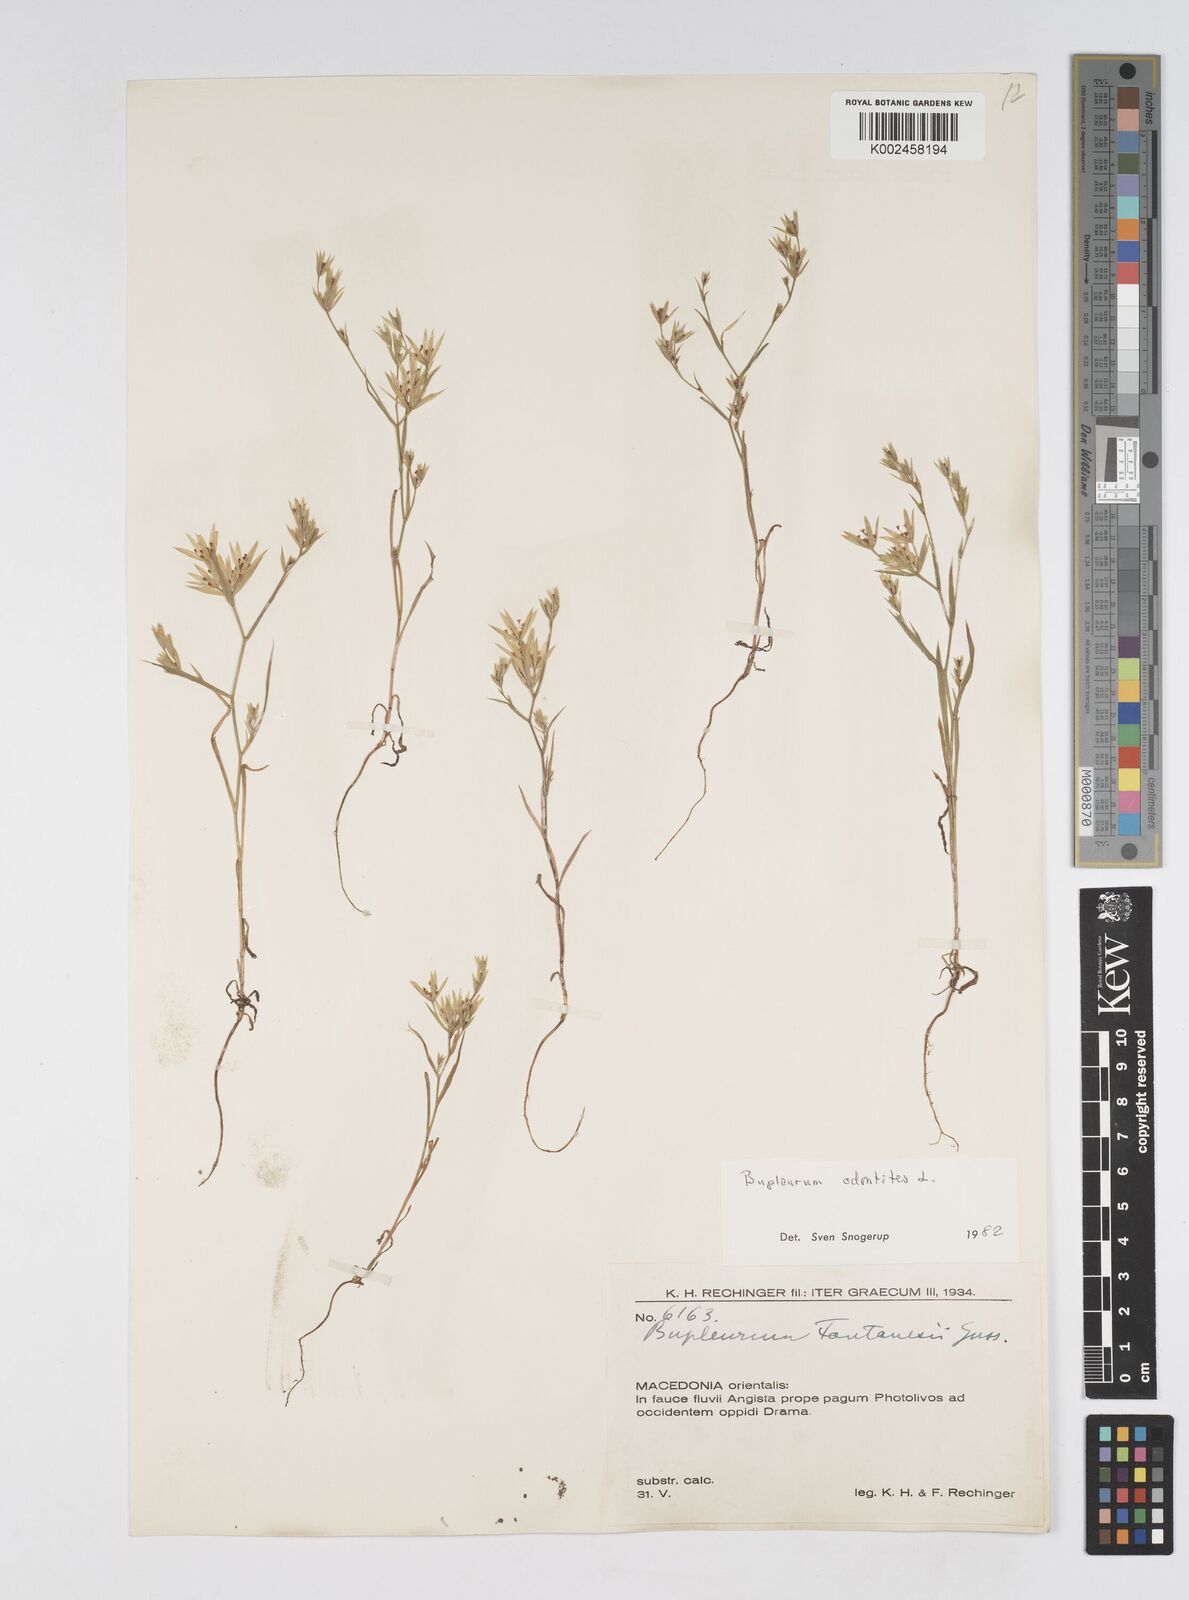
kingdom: Plantae
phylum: Tracheophyta
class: Magnoliopsida
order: Apiales
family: Apiaceae
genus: Bupleurum
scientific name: Bupleurum odontites
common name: Narrowleaf thorow wax
